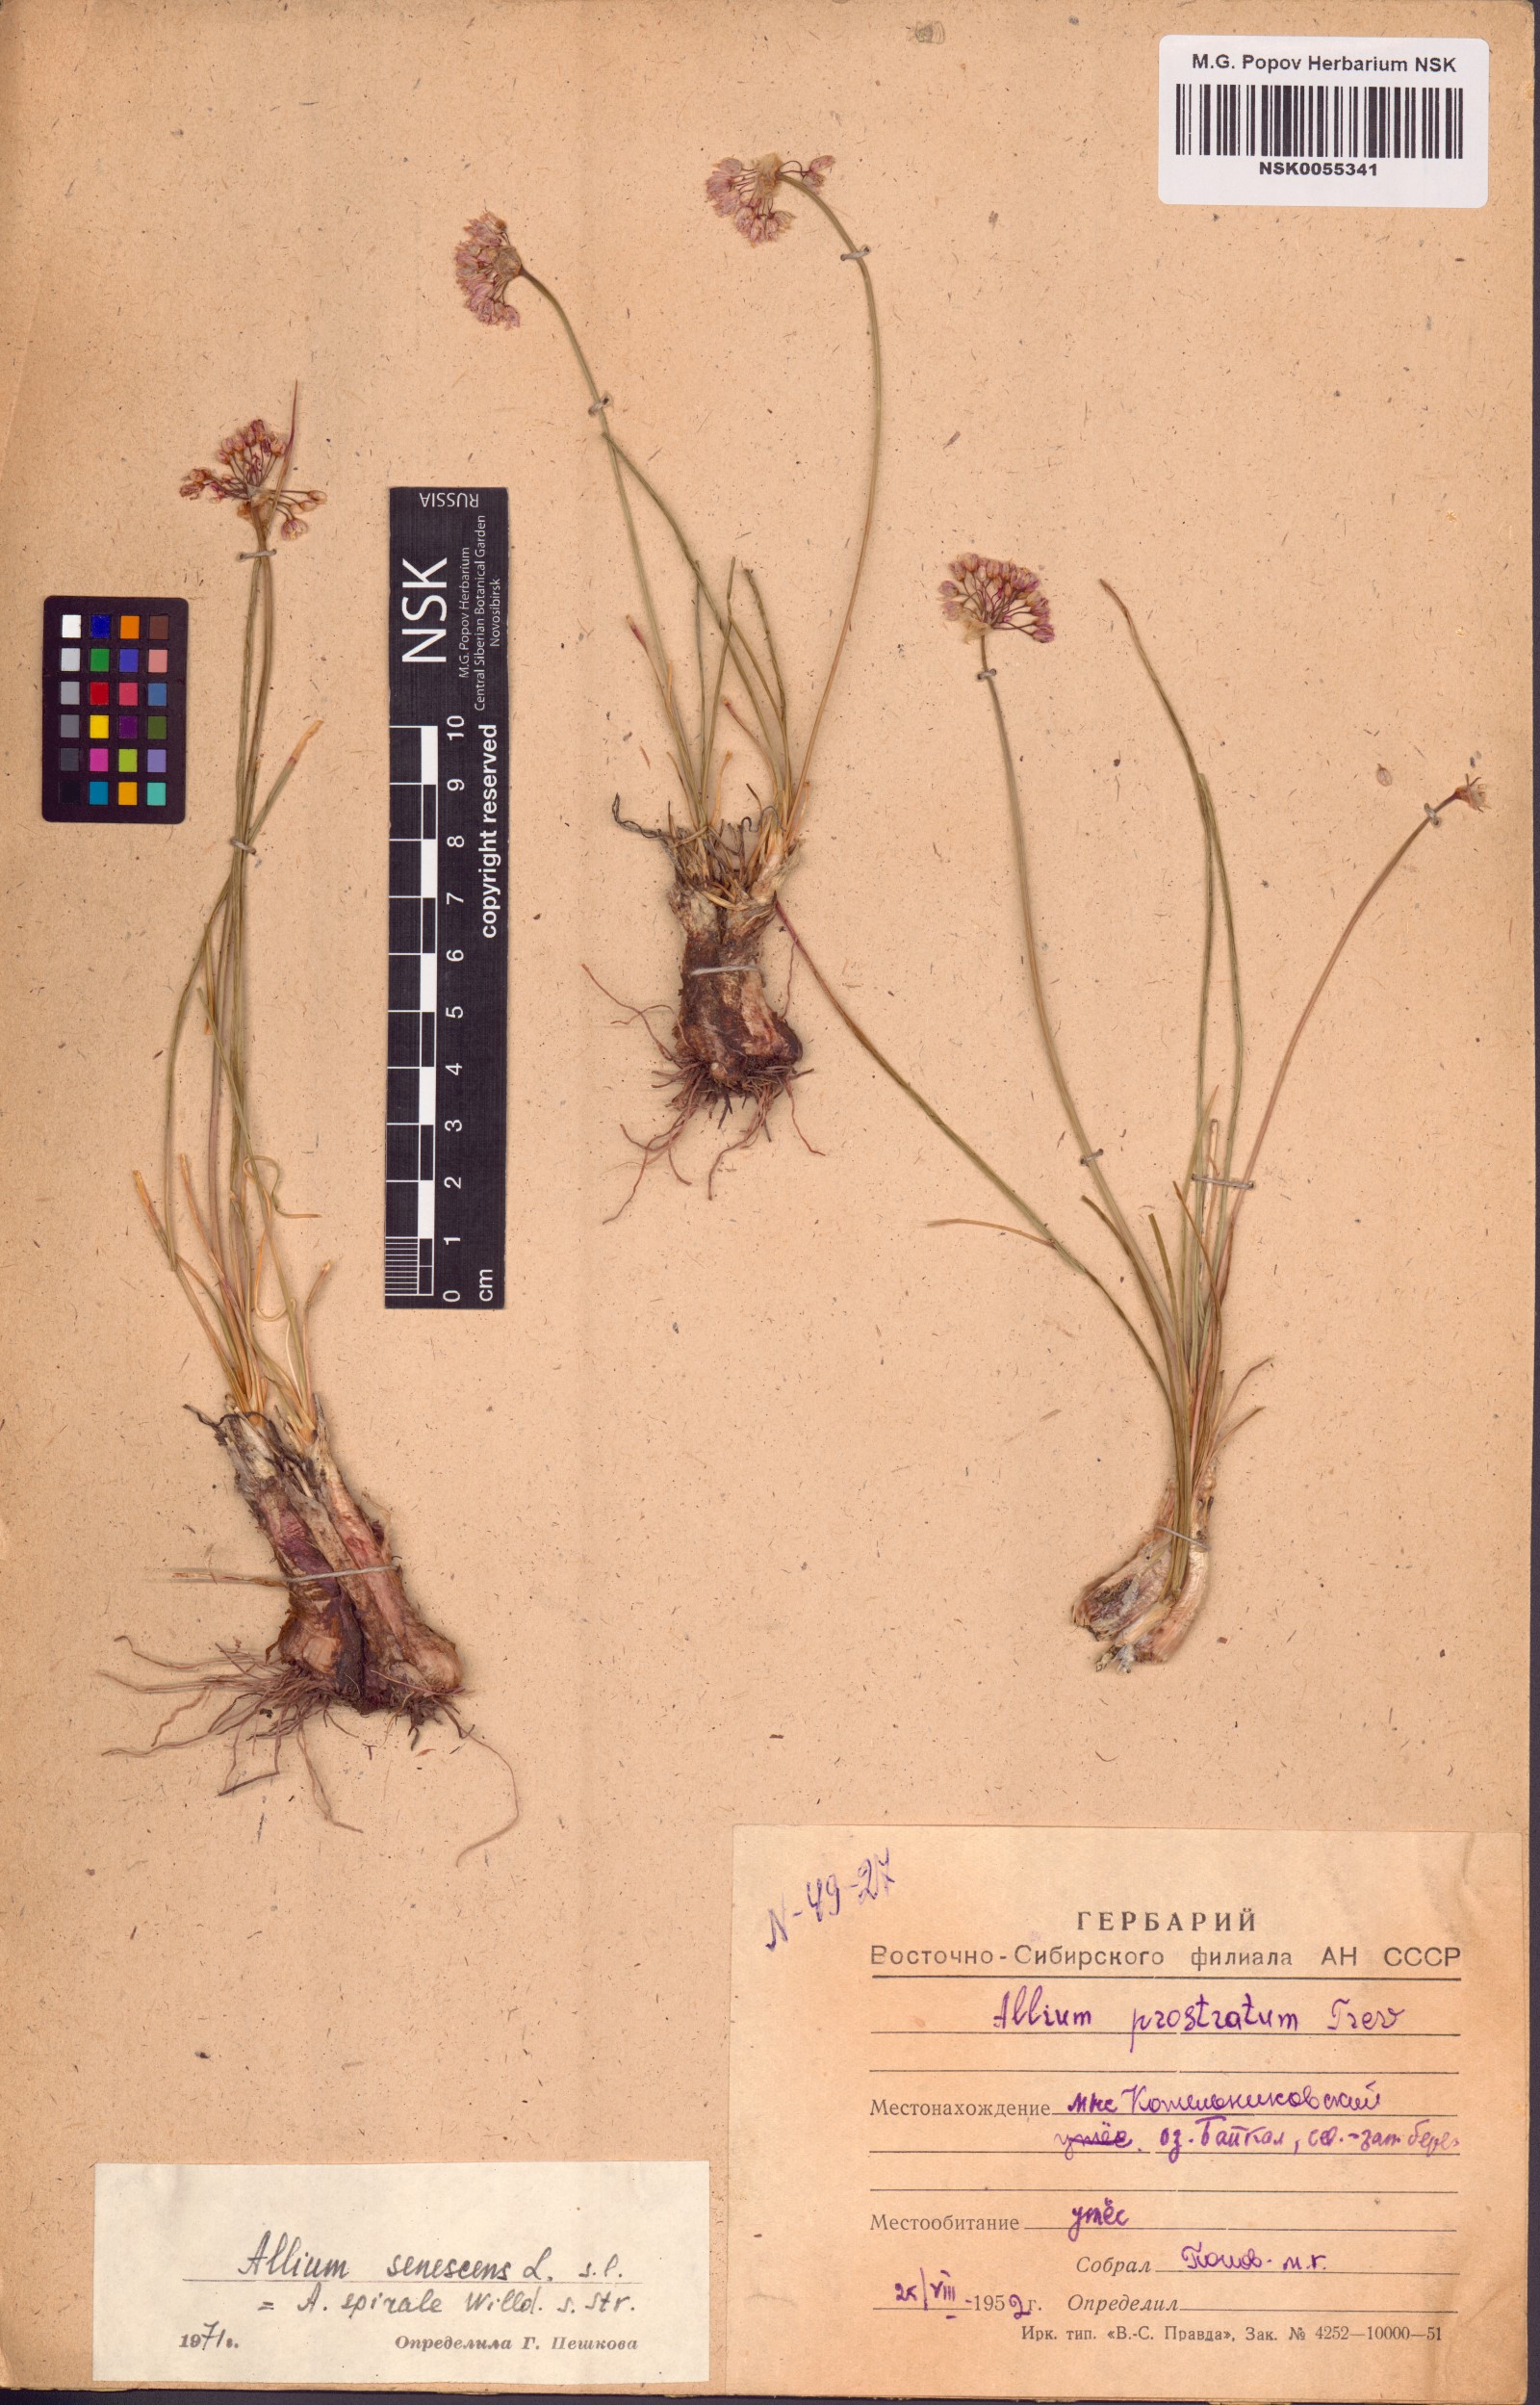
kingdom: Plantae
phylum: Tracheophyta
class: Liliopsida
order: Asparagales
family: Amaryllidaceae
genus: Allium
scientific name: Allium senescens
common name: German garlic
